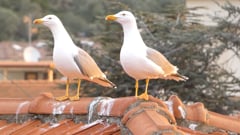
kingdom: Animalia
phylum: Chordata
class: Aves
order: Charadriiformes
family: Laridae
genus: Larus
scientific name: Larus michahellis
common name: Yellow-legged gull
